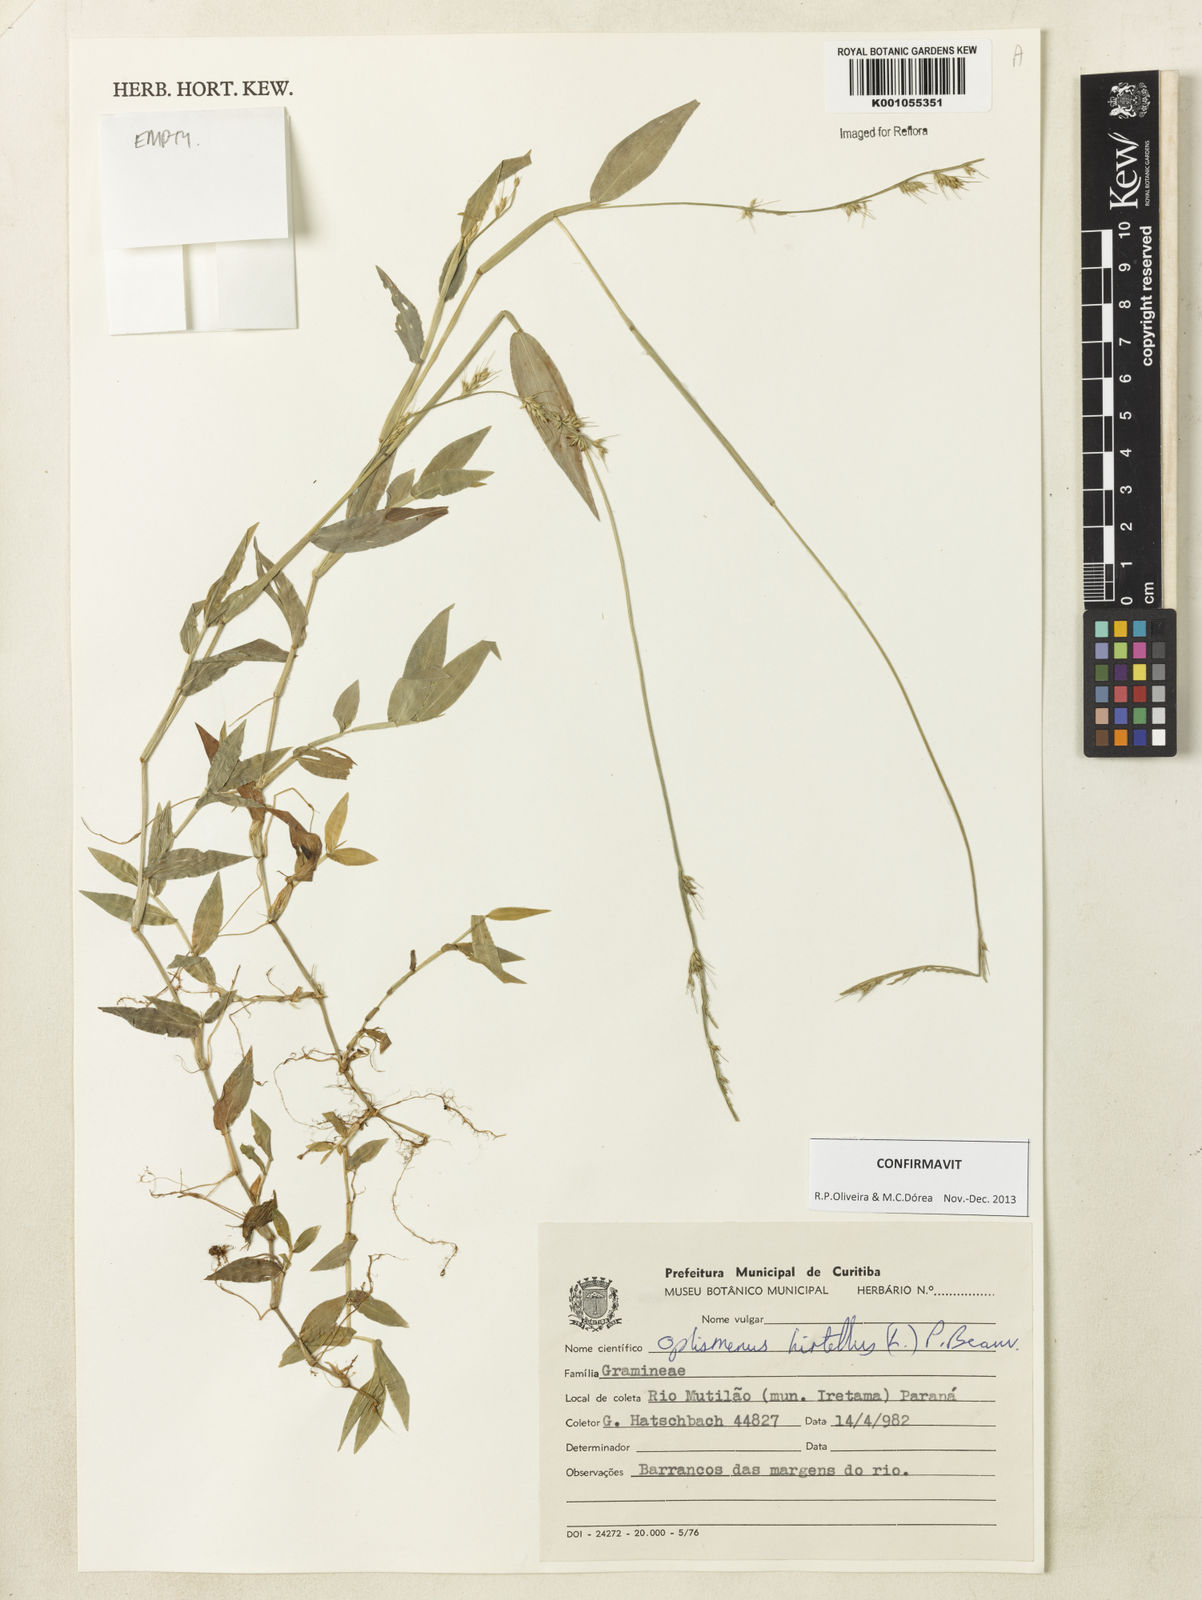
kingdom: Plantae
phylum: Tracheophyta
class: Liliopsida
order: Poales
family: Poaceae
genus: Oplismenus
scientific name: Oplismenus hirtellus
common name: Basketgrass
